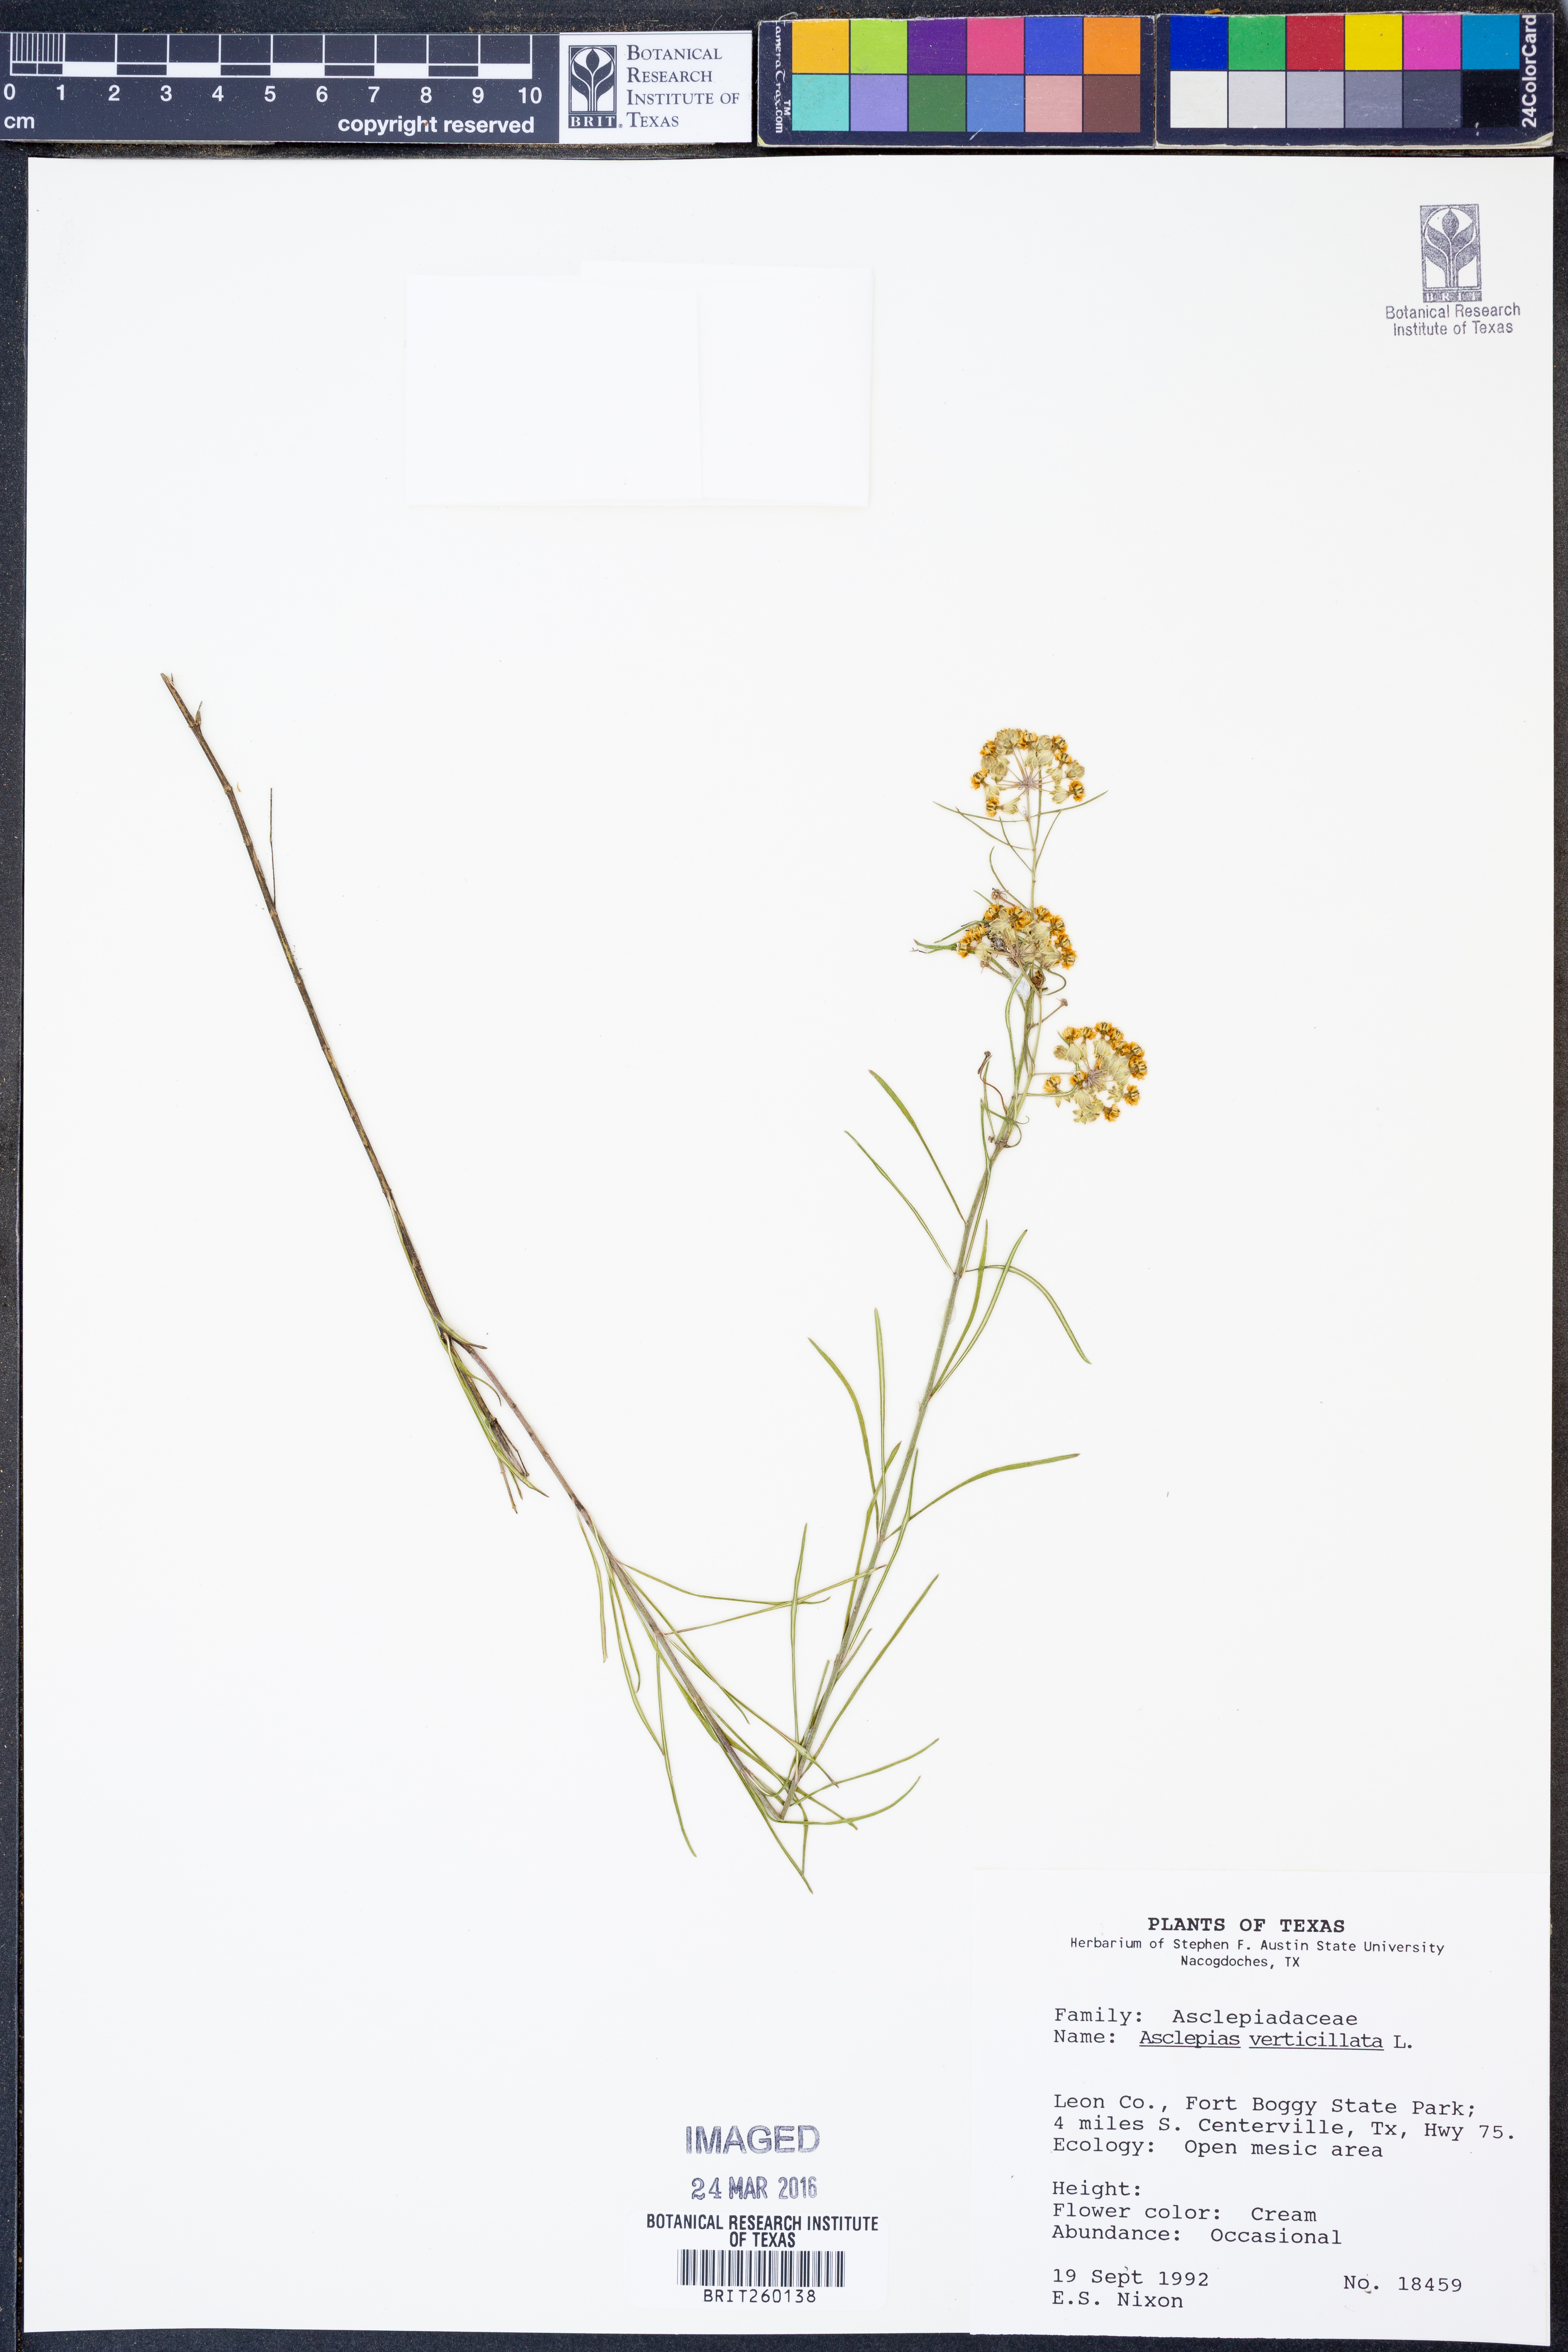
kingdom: Plantae
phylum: Tracheophyta
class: Magnoliopsida
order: Gentianales
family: Apocynaceae
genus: Asclepias
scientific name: Asclepias verticillata
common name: Eastern whorled milkweed
